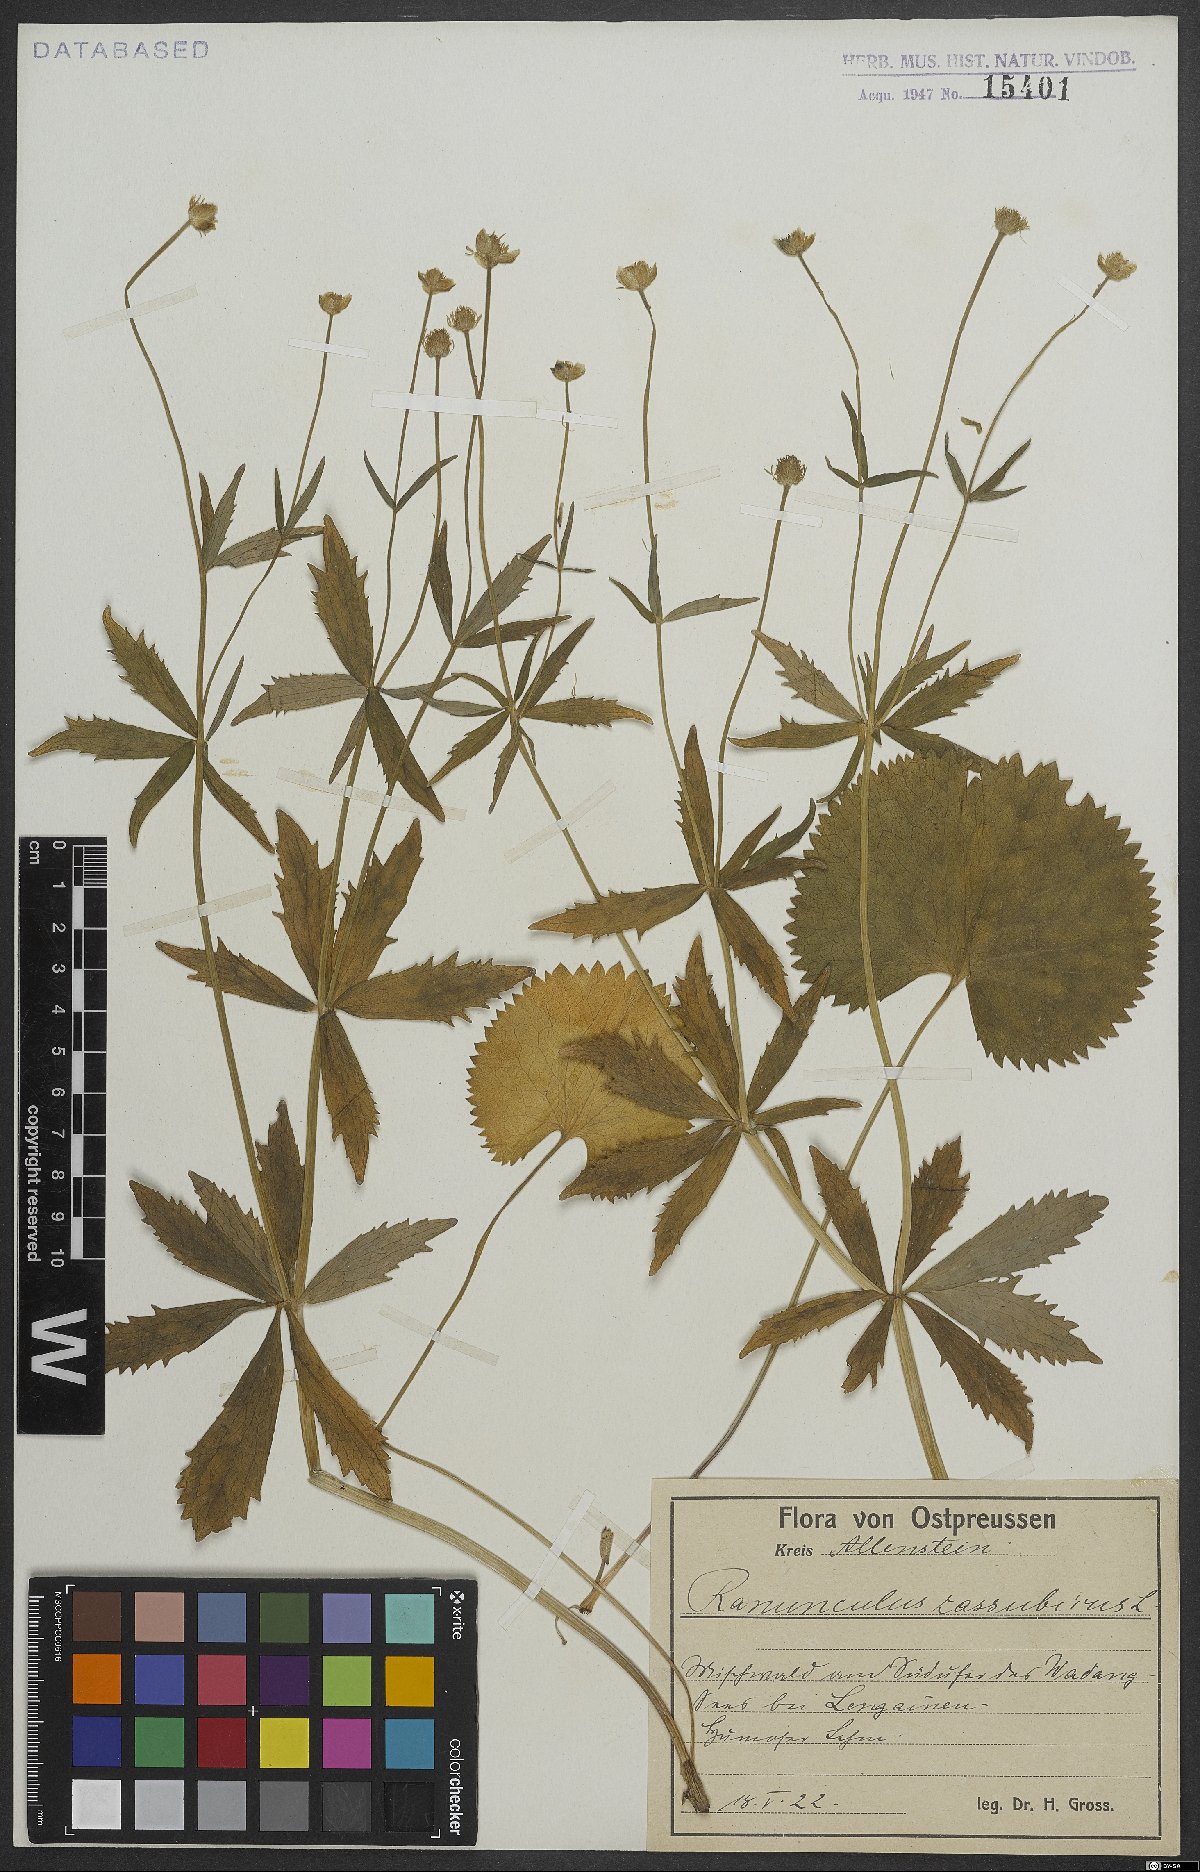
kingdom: Plantae
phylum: Tracheophyta
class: Magnoliopsida
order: Ranunculales
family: Ranunculaceae
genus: Ranunculus
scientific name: Ranunculus cassubicus
